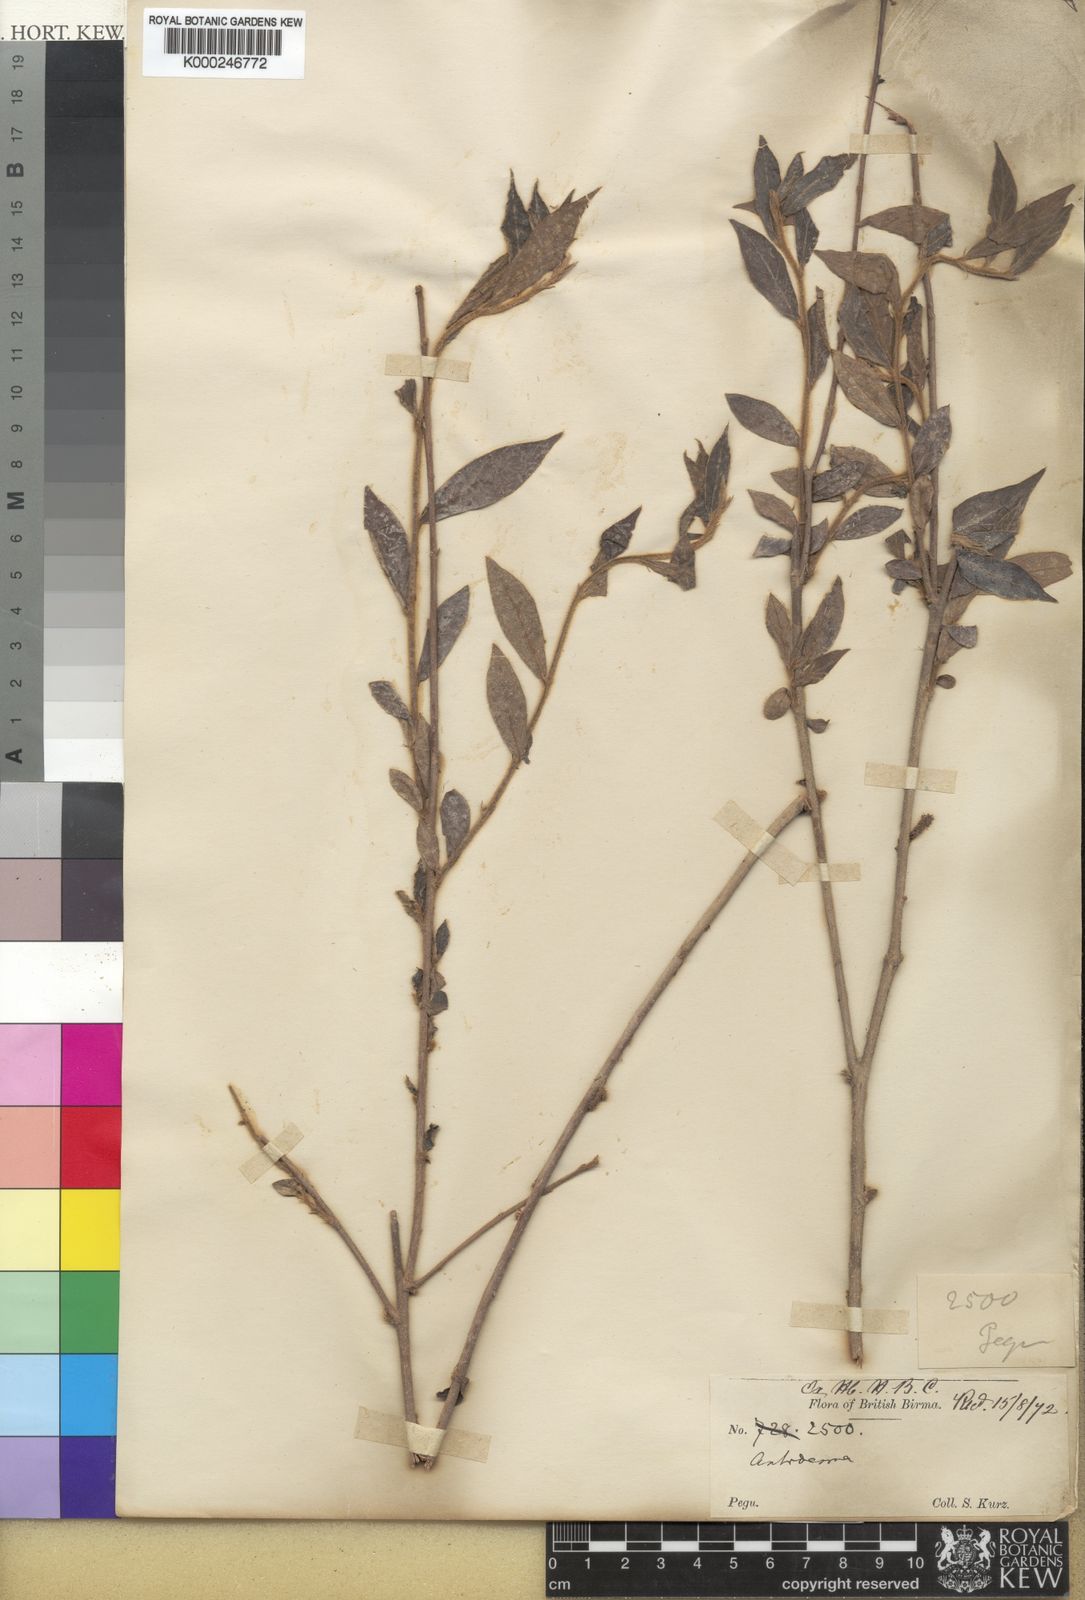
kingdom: Plantae
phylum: Tracheophyta
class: Magnoliopsida
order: Malpighiales
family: Phyllanthaceae
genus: Antidesma
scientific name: Antidesma
